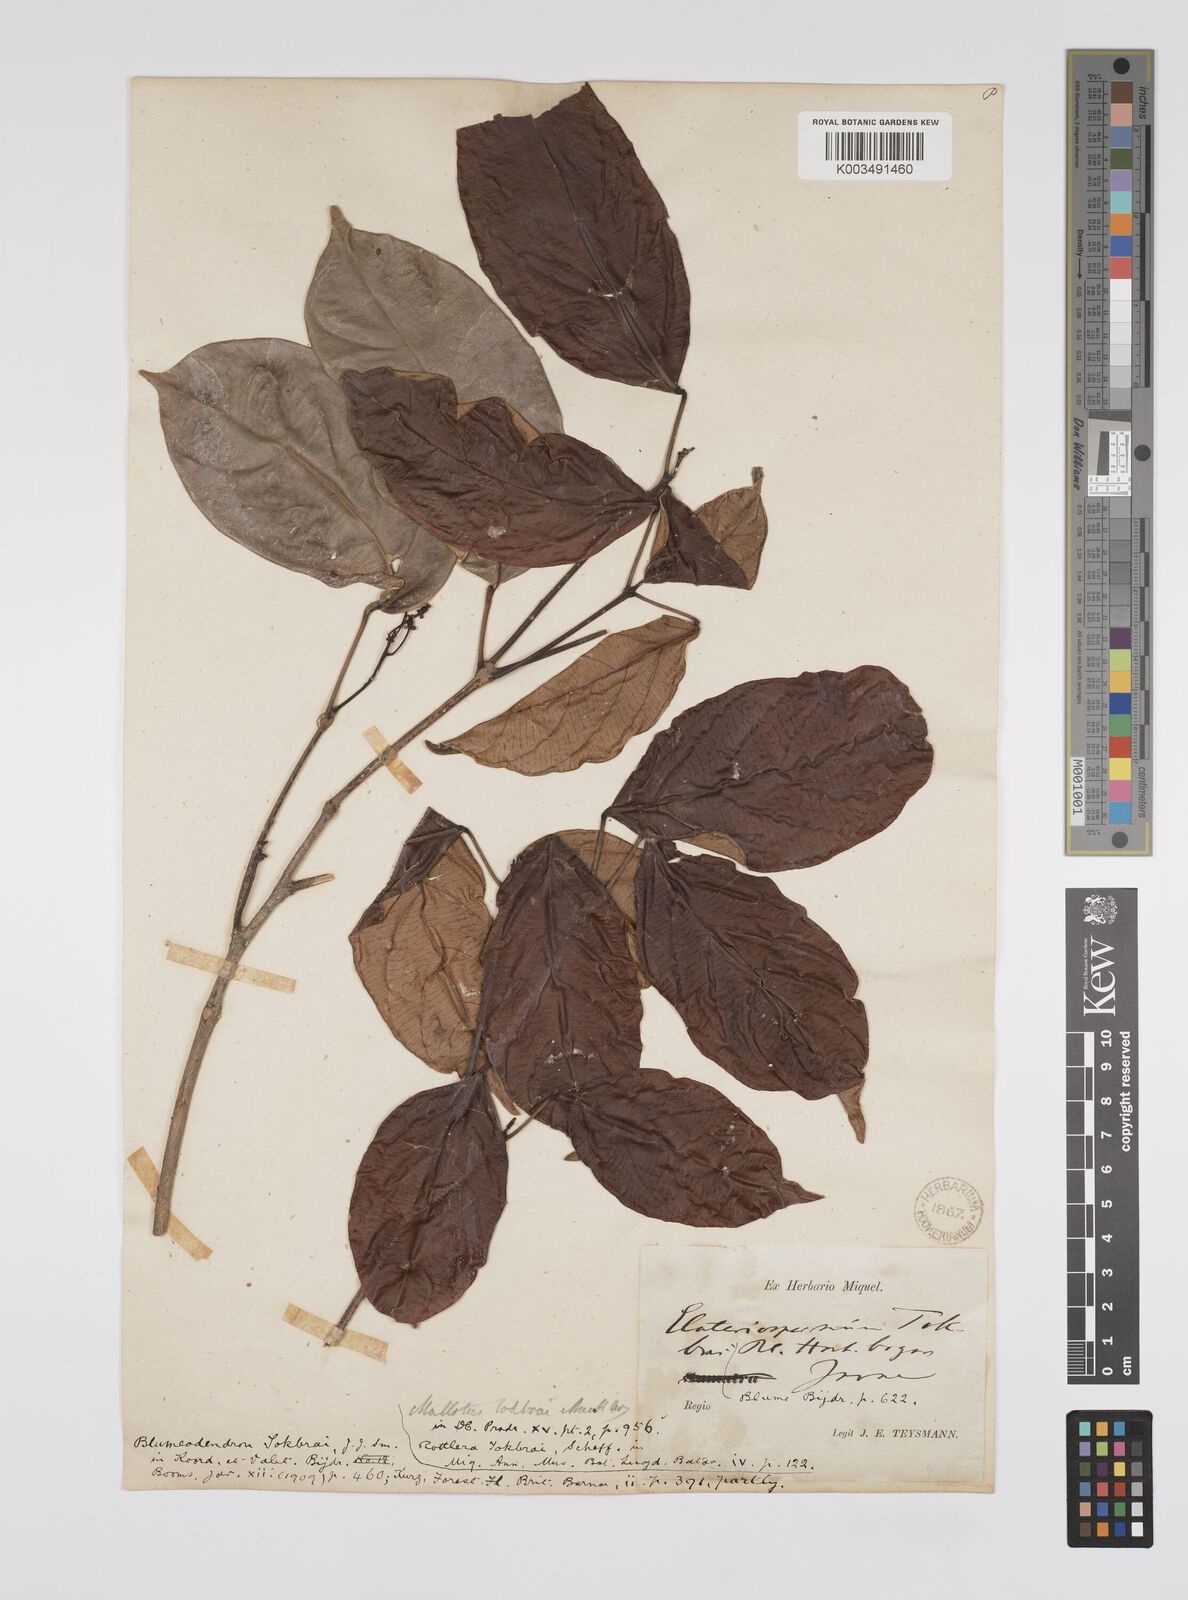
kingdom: Plantae
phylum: Tracheophyta
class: Magnoliopsida
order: Malpighiales
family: Euphorbiaceae
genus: Blumeodendron
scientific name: Blumeodendron tokbrai
